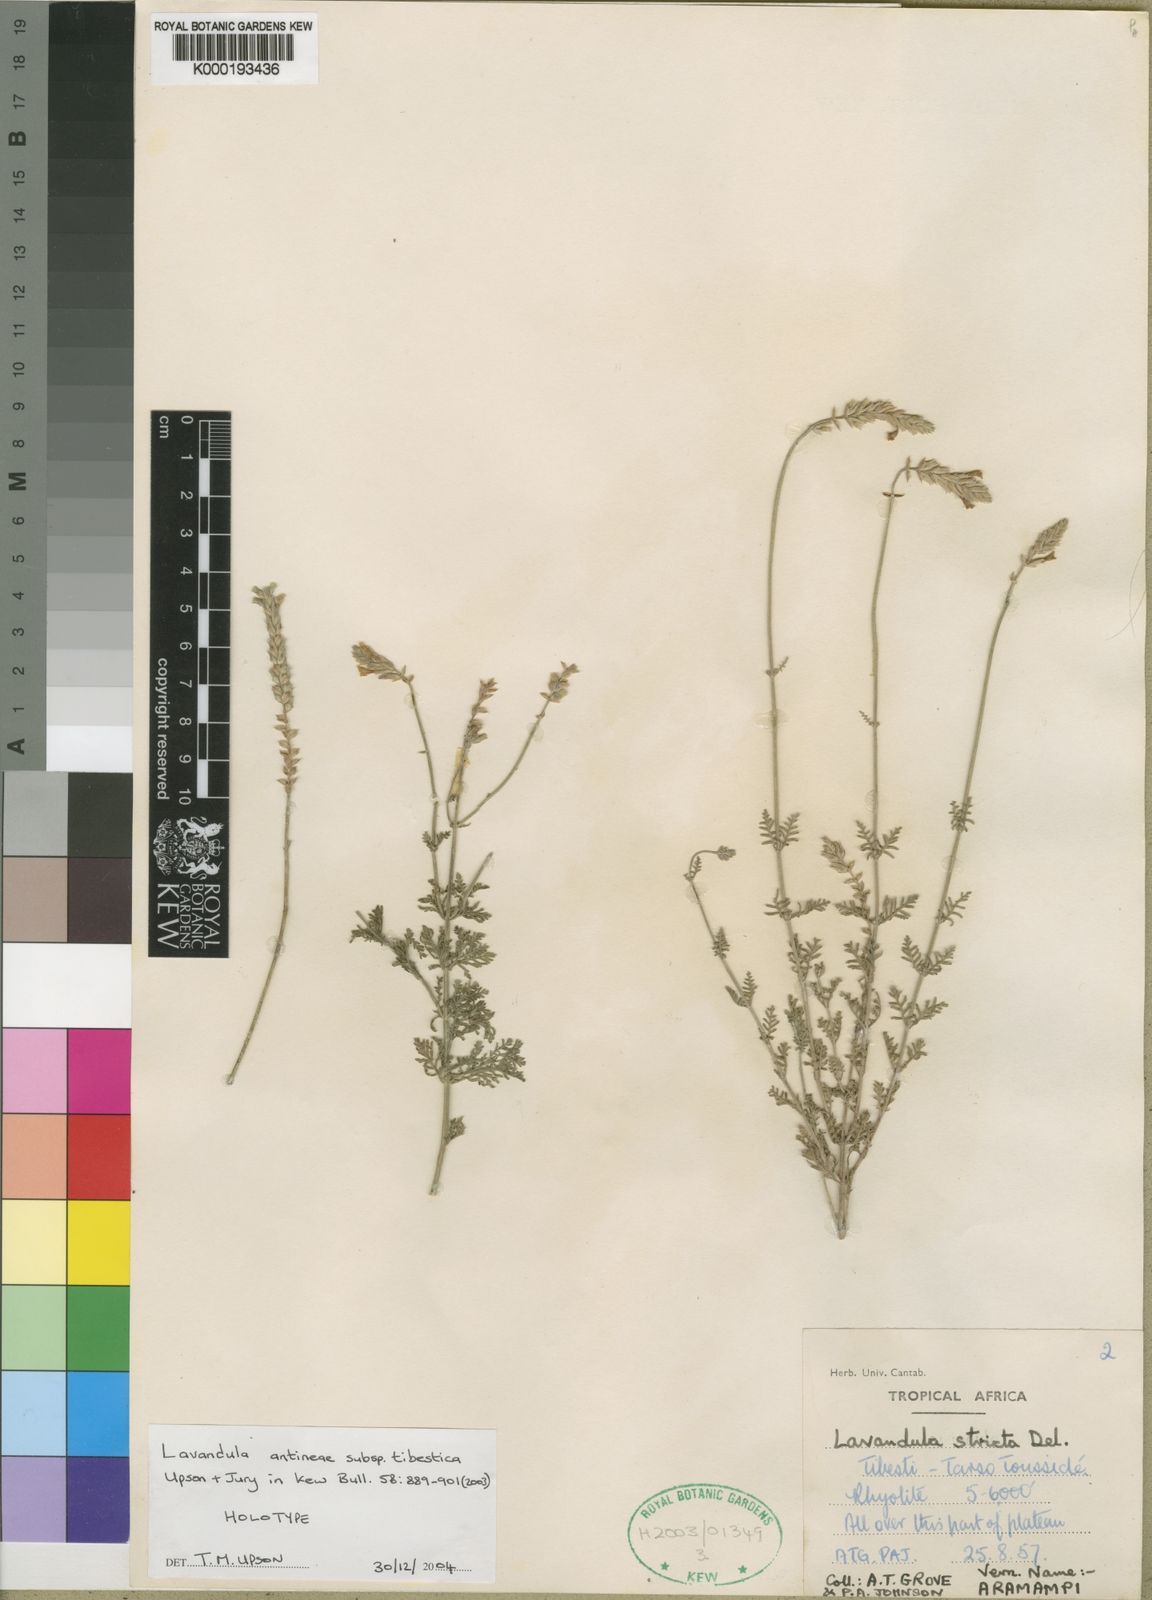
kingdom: Plantae
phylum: Tracheophyta
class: Magnoliopsida
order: Lamiales
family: Lamiaceae
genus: Lavandula
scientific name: Lavandula antineae
